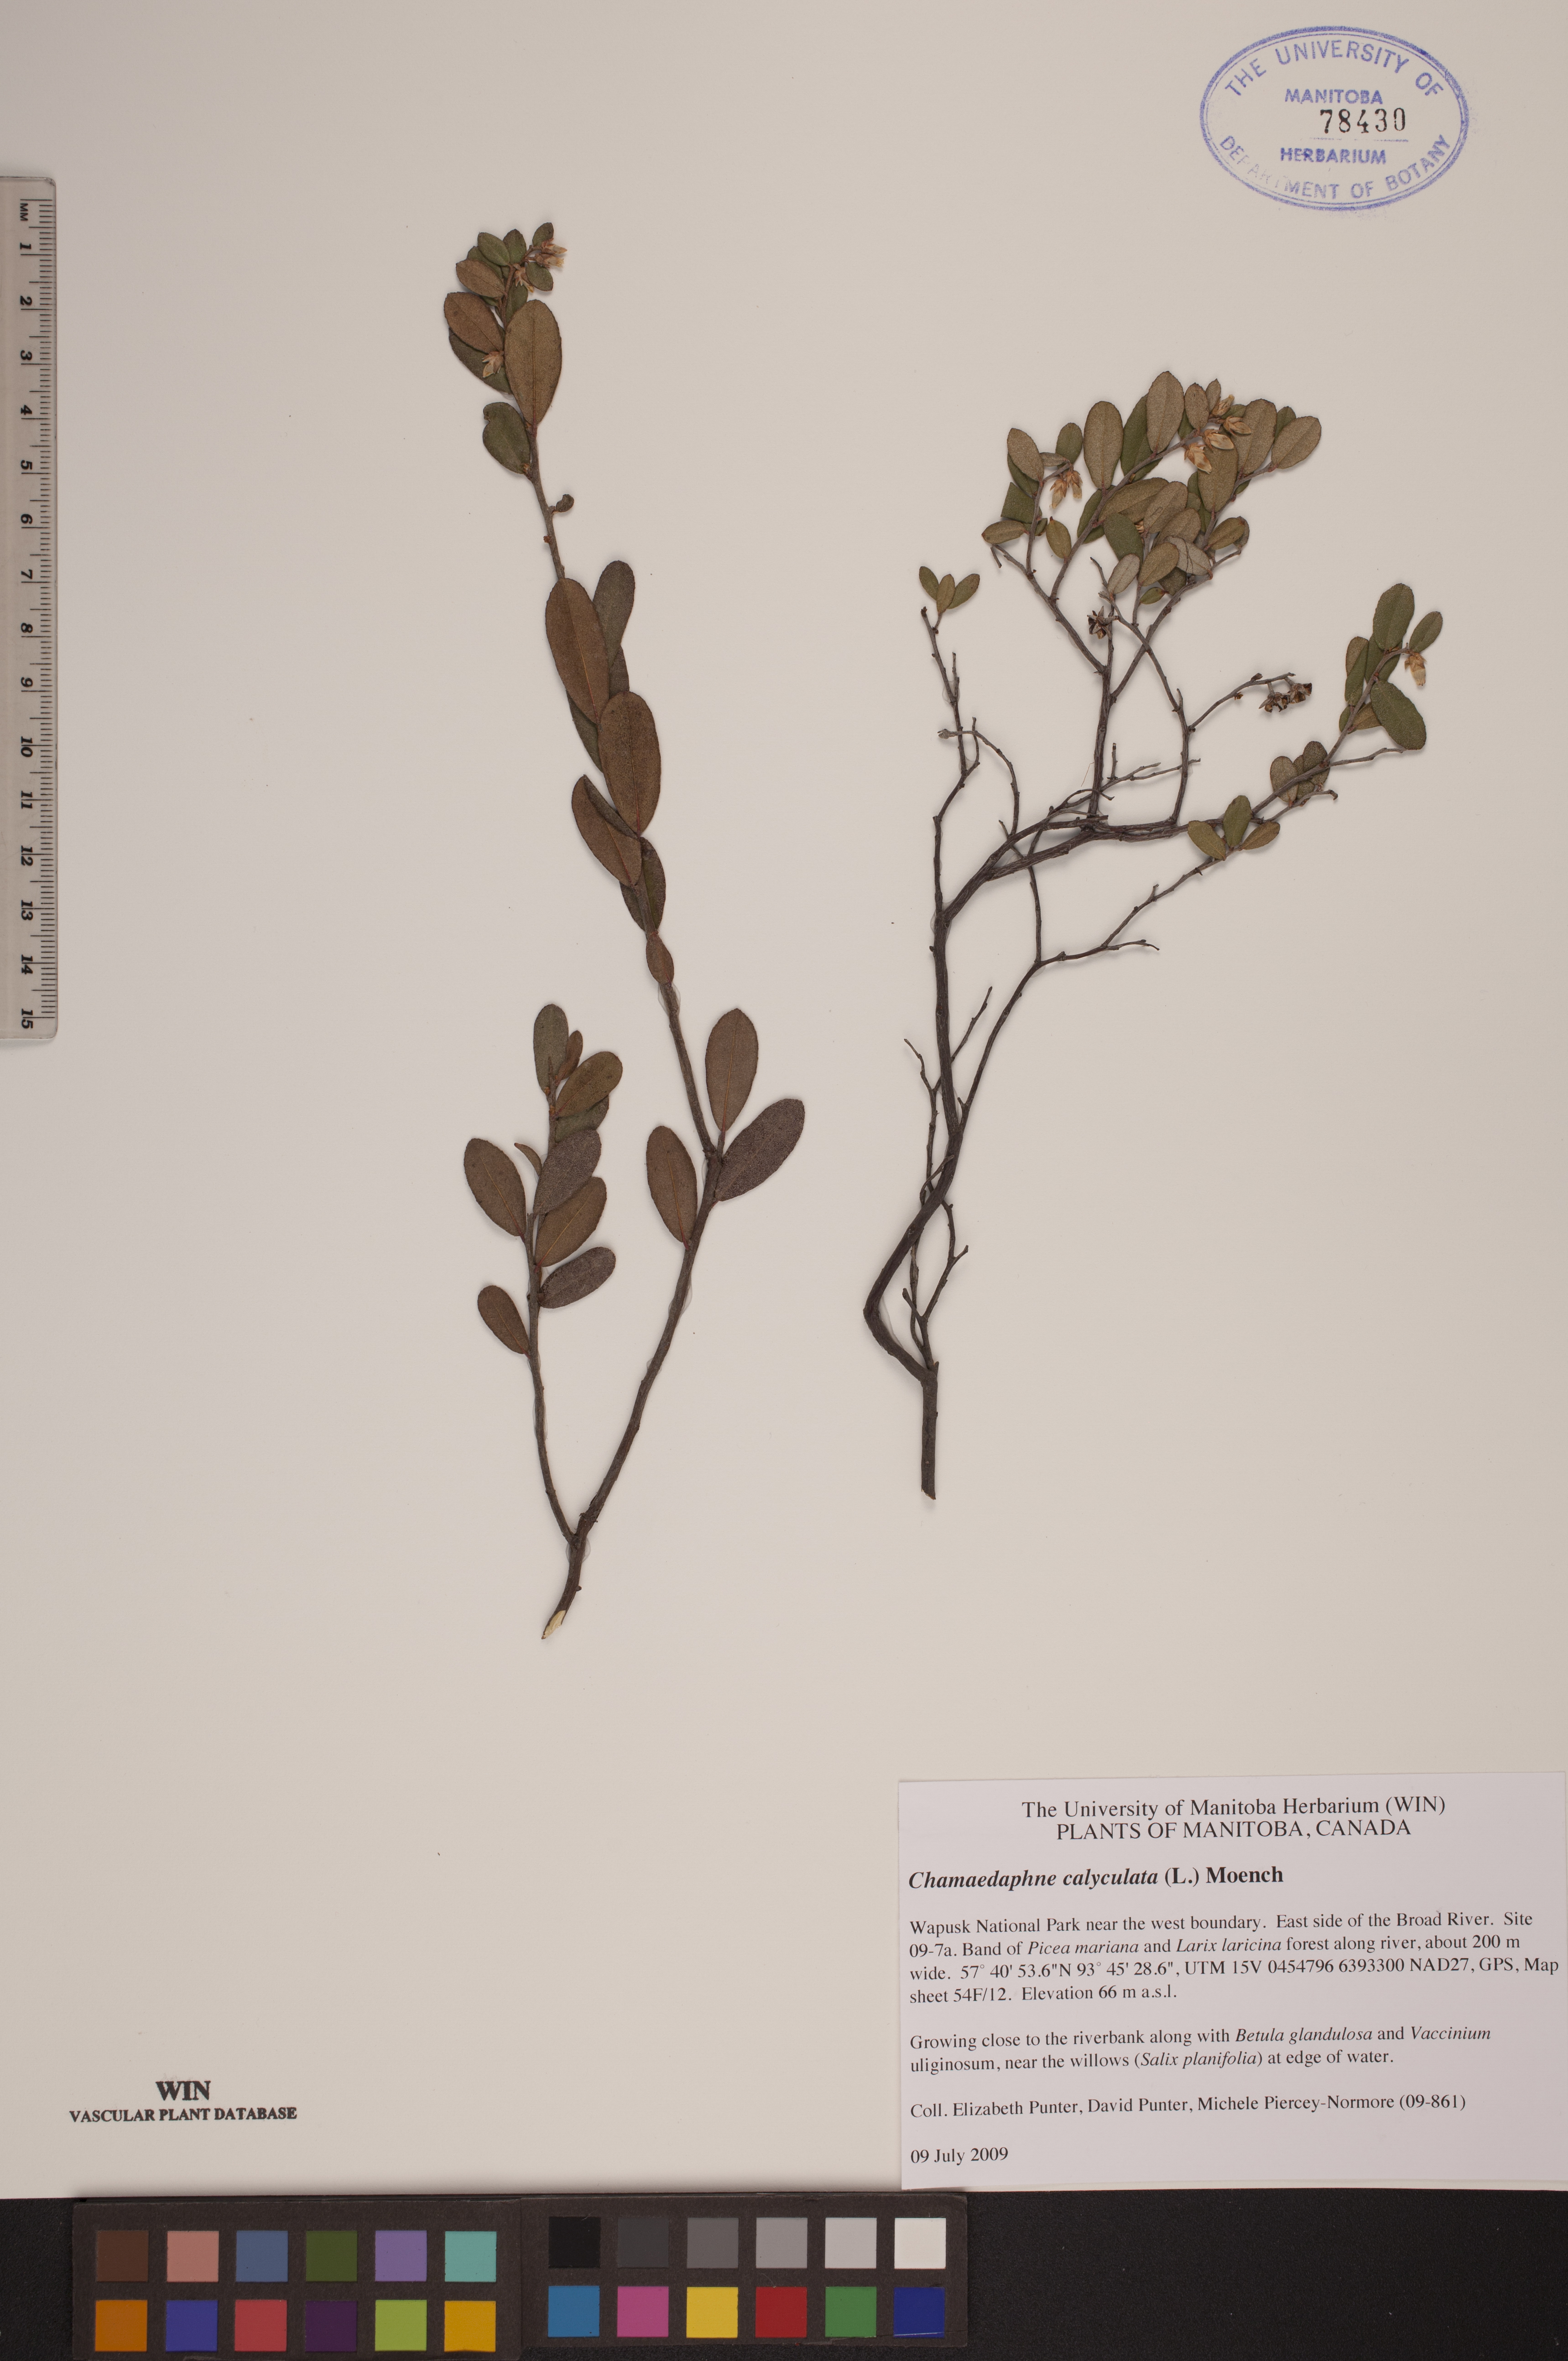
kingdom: Plantae
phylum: Tracheophyta
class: Magnoliopsida
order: Ericales
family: Ericaceae
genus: Chamaedaphne
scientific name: Chamaedaphne calyculata
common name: Leatherleaf
